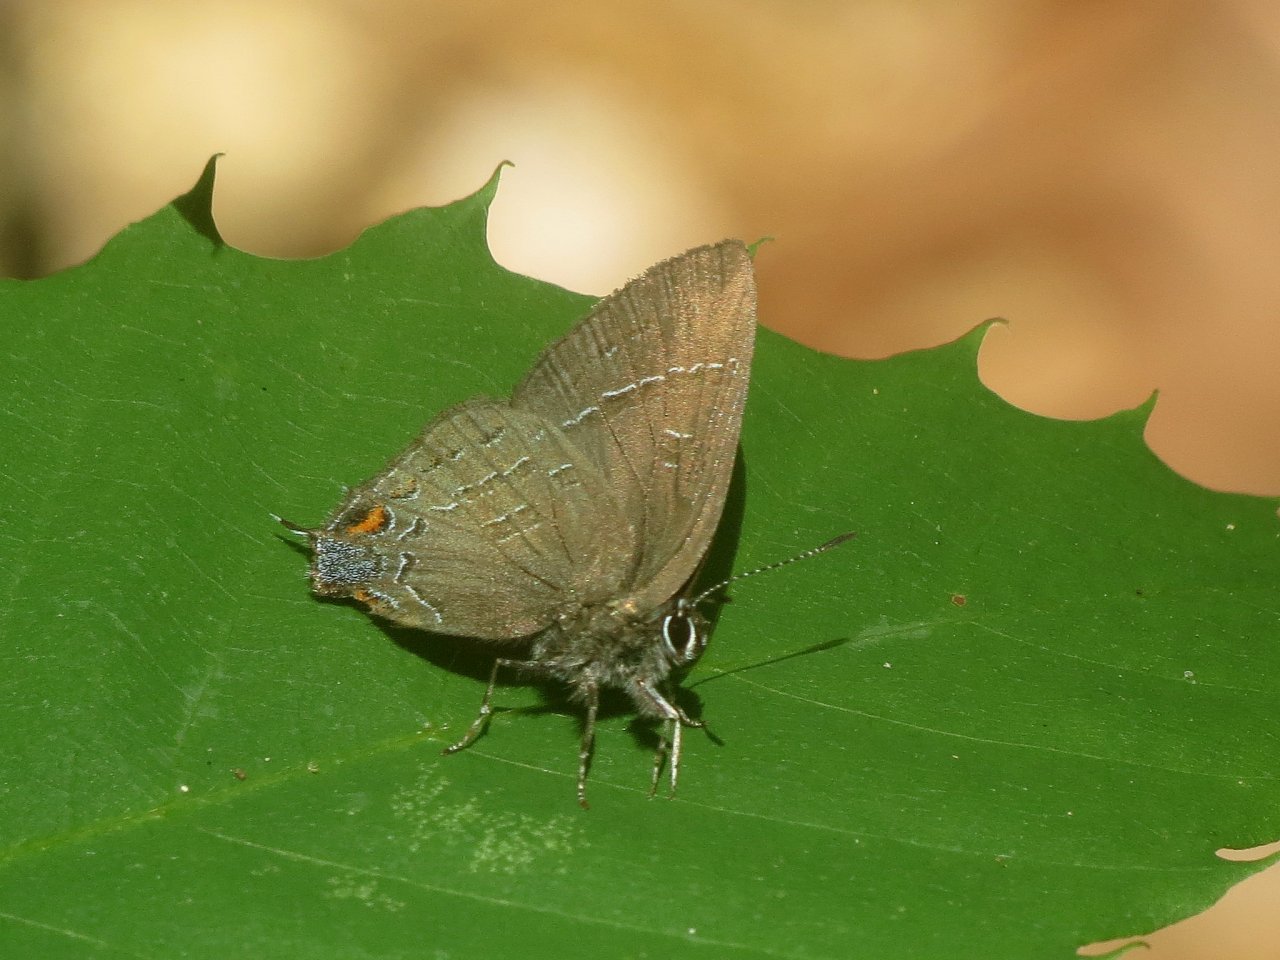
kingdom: Animalia
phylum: Arthropoda
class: Insecta
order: Lepidoptera
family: Lycaenidae
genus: Satyrium
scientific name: Satyrium calanus
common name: Banded Hairstreak
